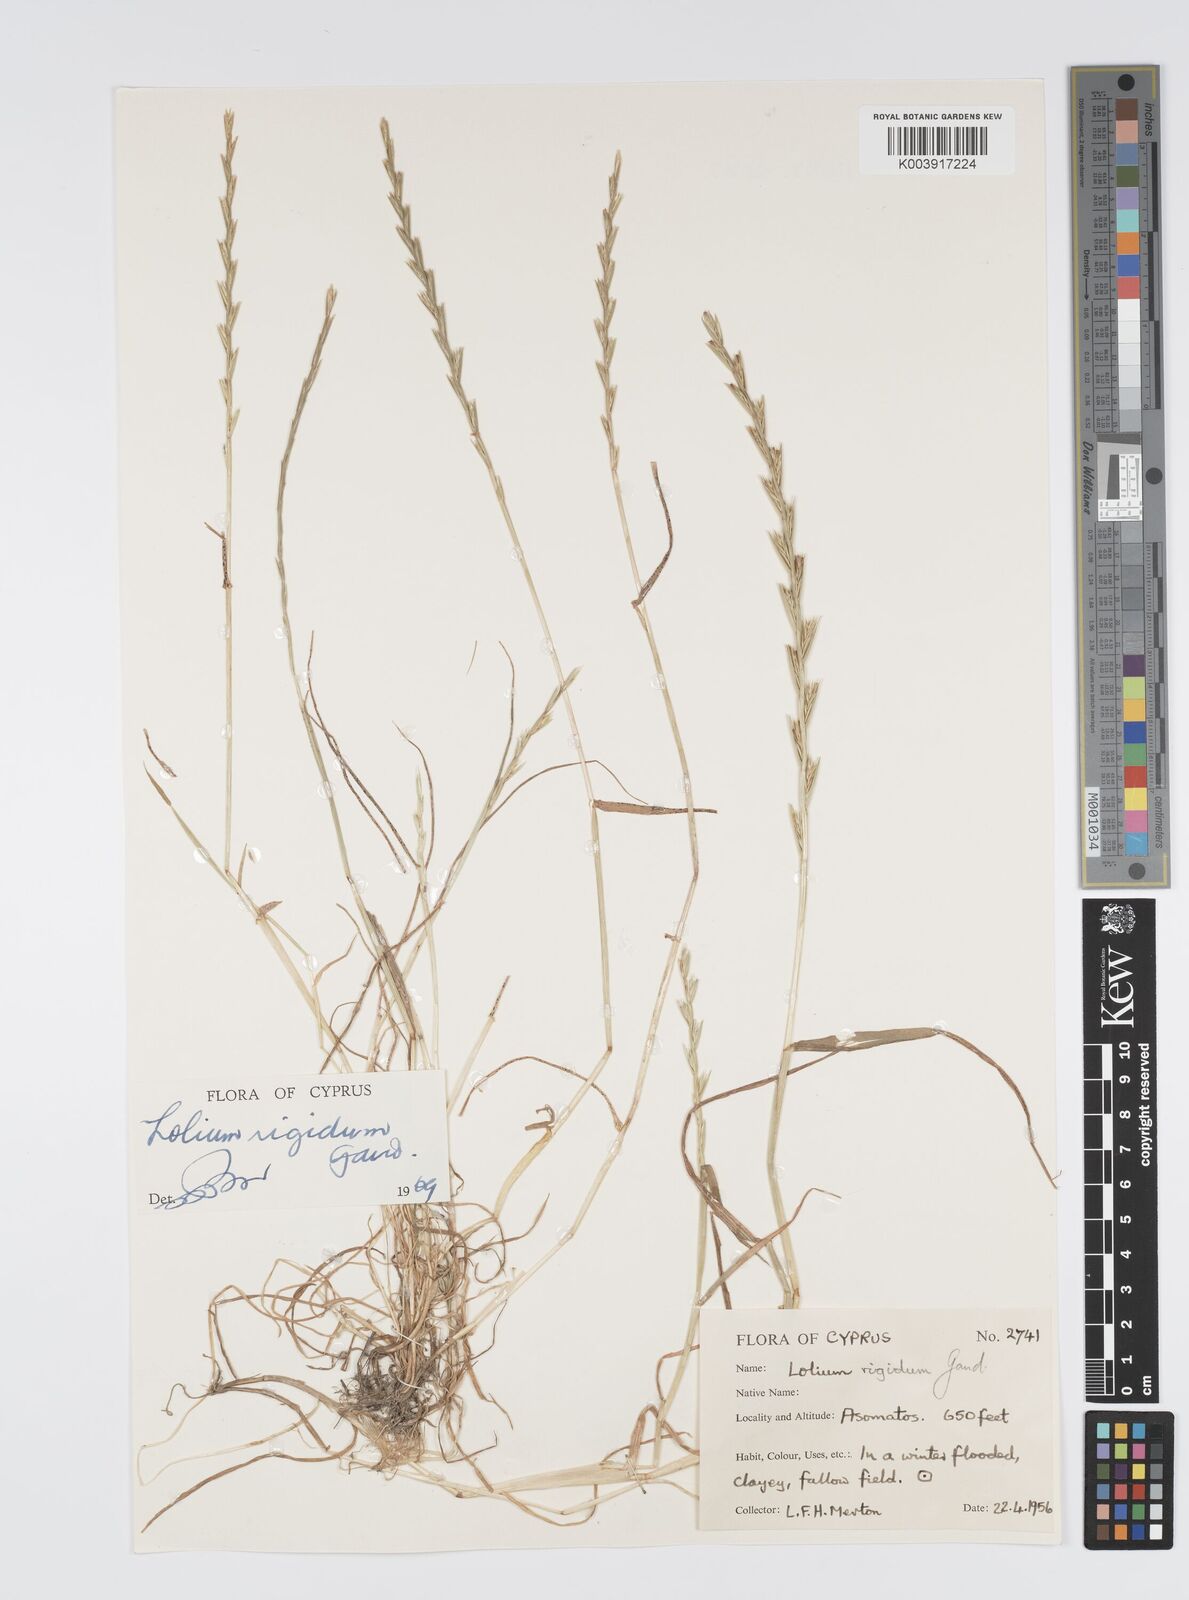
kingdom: Plantae
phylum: Tracheophyta
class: Liliopsida
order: Poales
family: Poaceae
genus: Lolium
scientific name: Lolium rigidum
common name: Wimmera ryegrass
